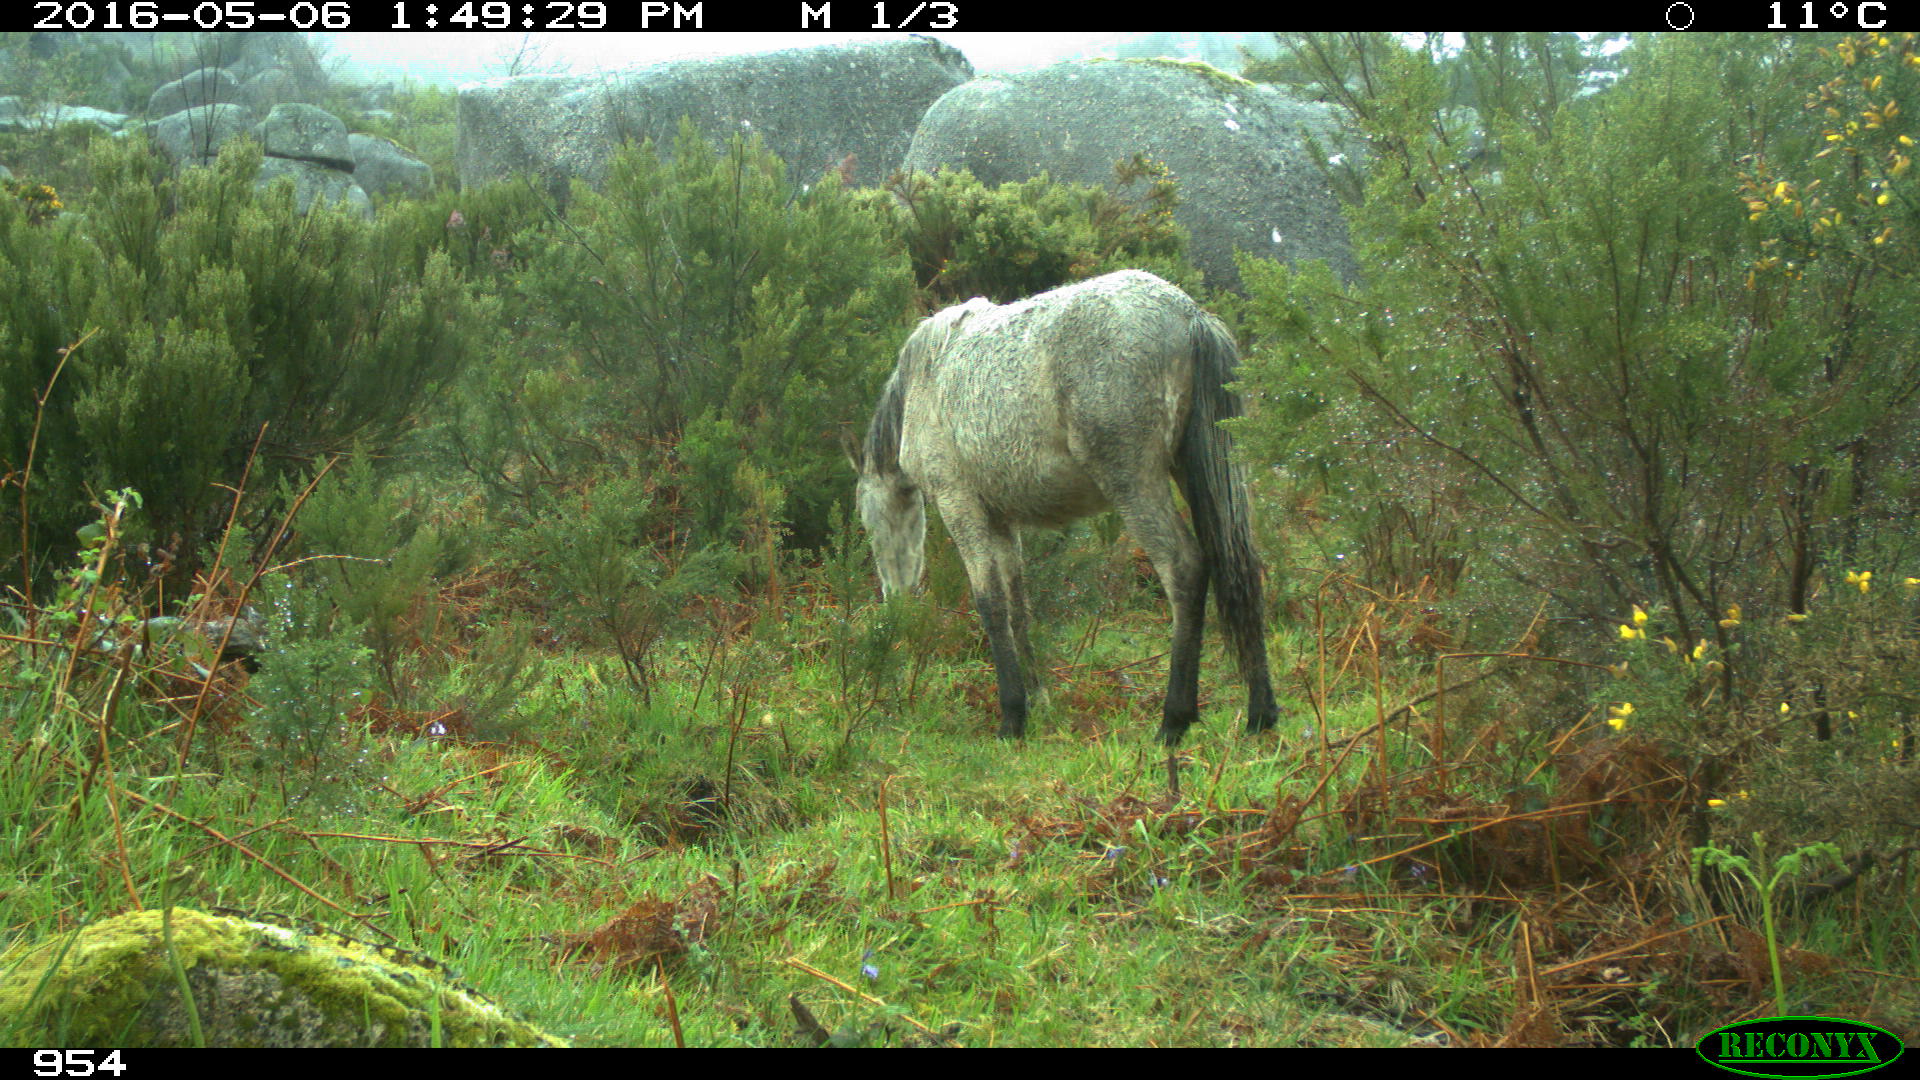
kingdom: Animalia
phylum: Chordata
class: Mammalia
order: Perissodactyla
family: Equidae
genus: Equus
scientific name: Equus caballus
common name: Horse
